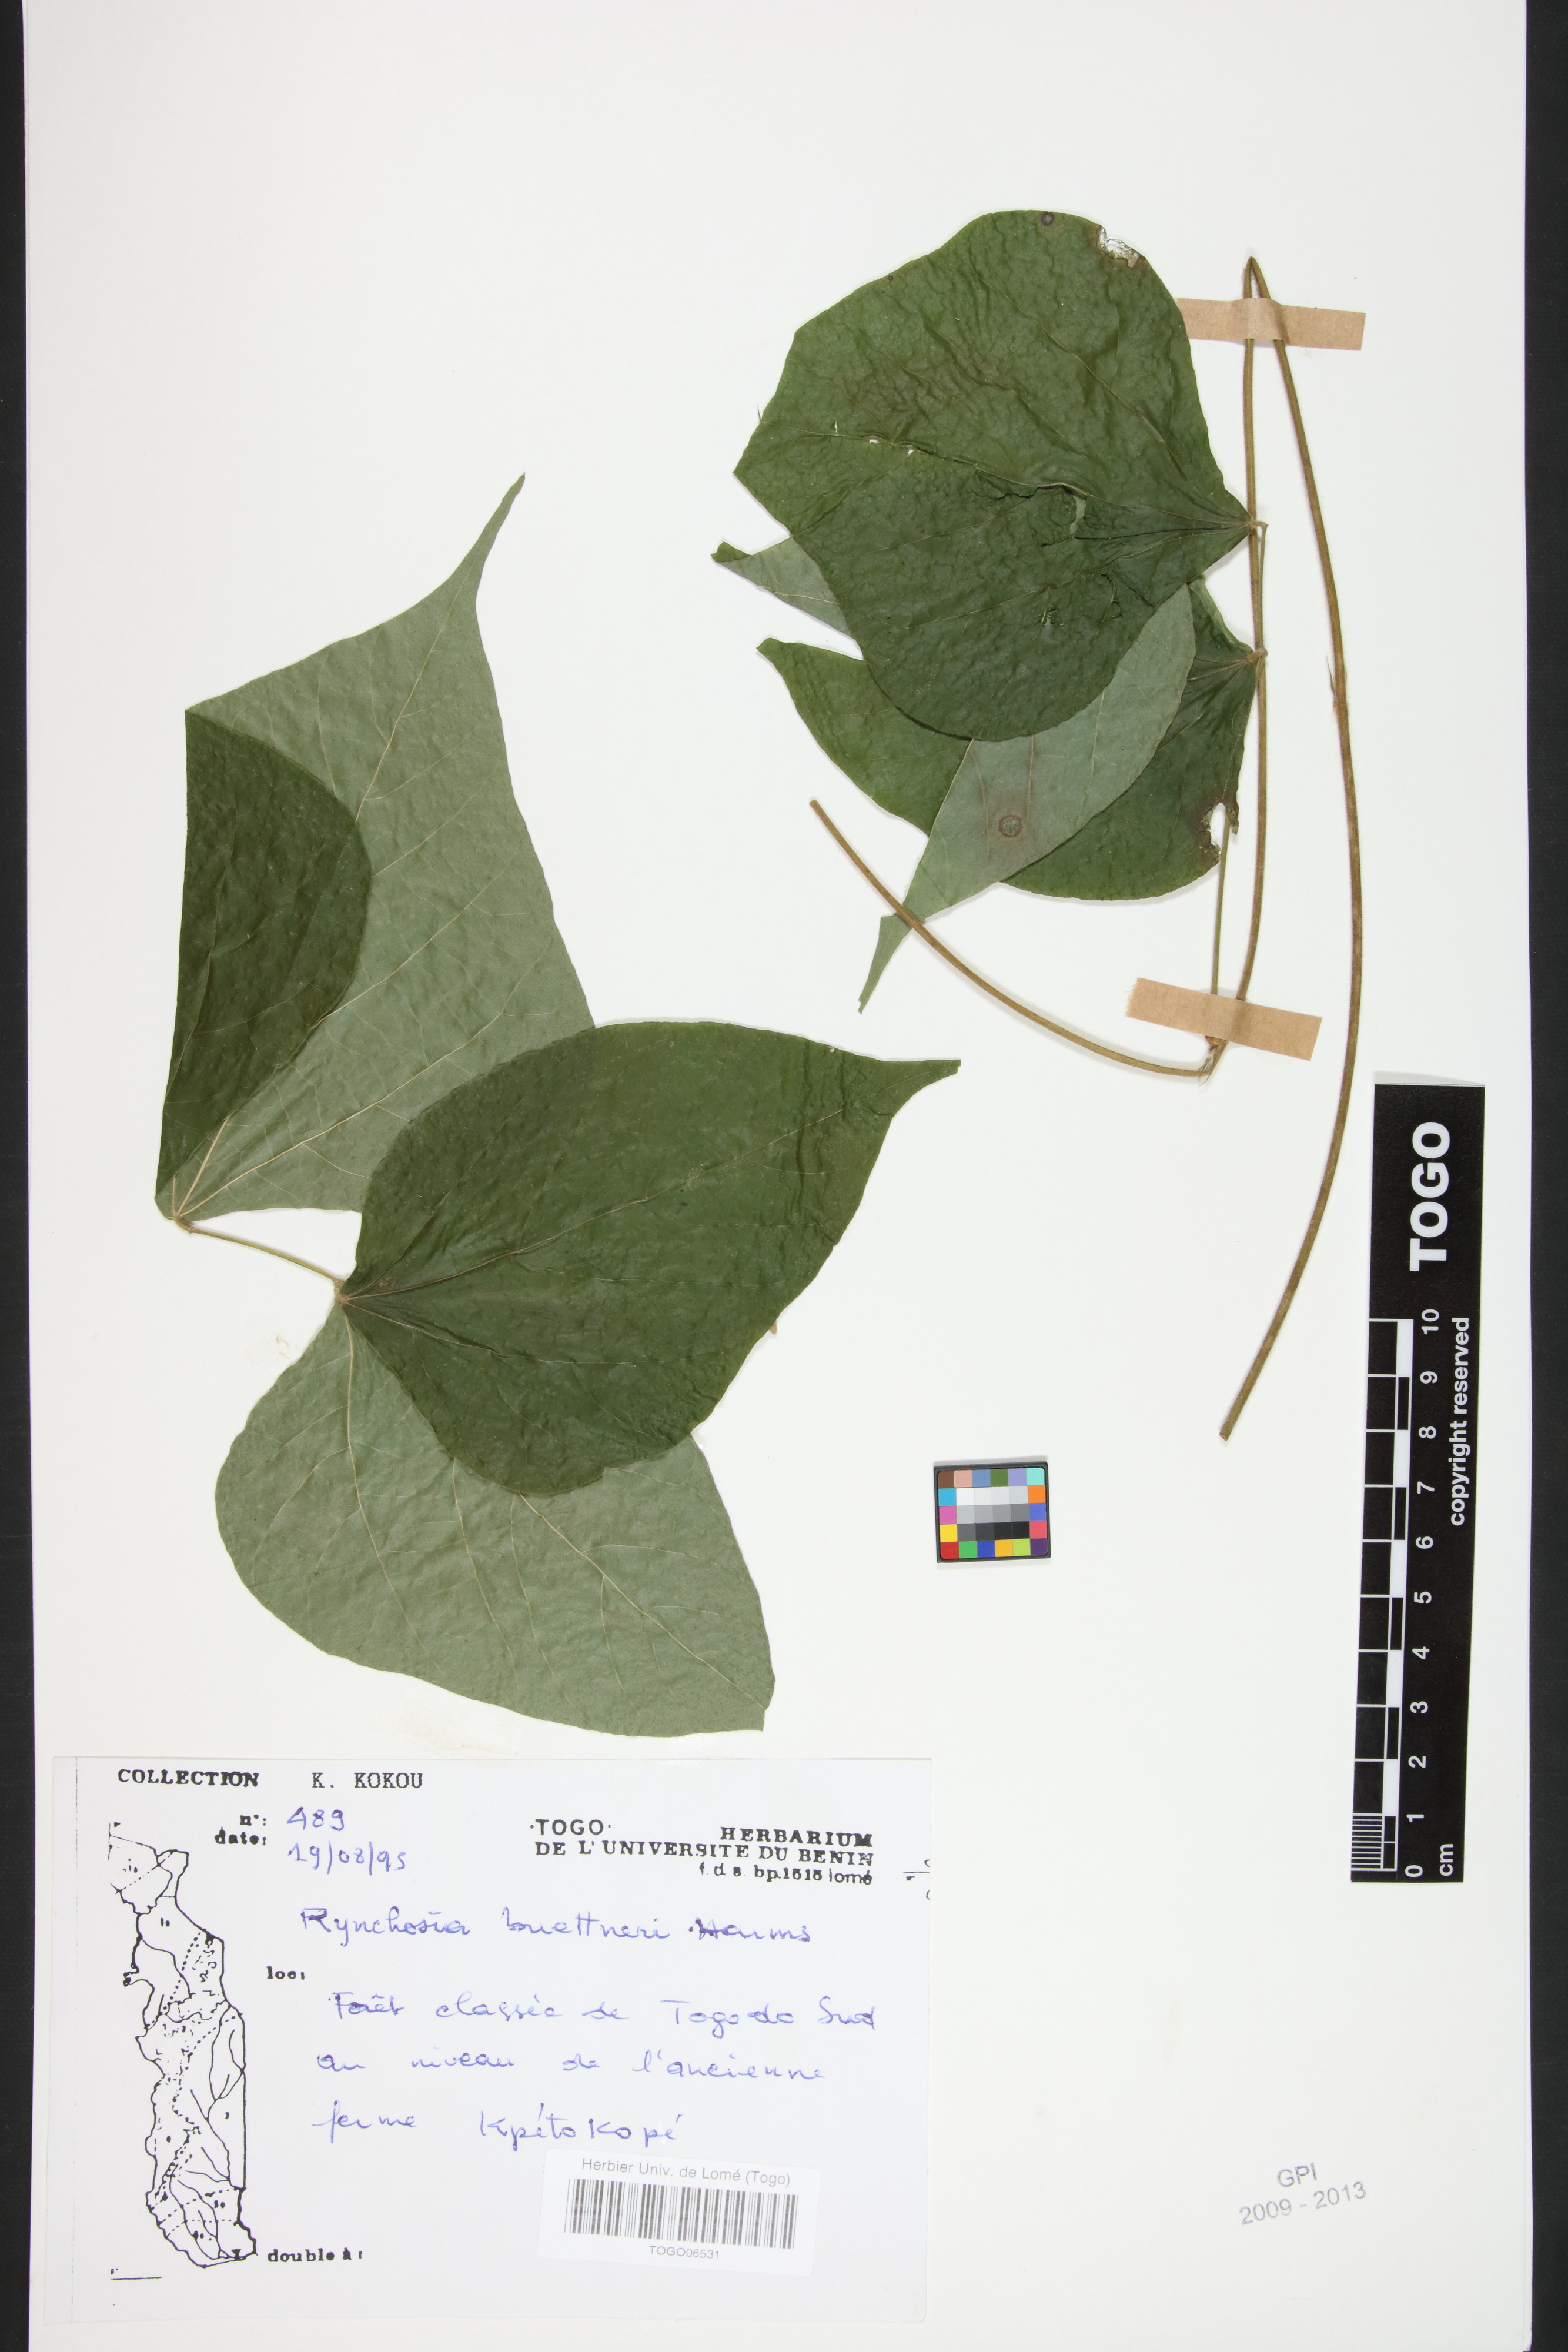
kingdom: Plantae
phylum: Tracheophyta
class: Magnoliopsida
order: Fabales
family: Fabaceae
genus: Rhynchosia
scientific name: Rhynchosia buettneri
